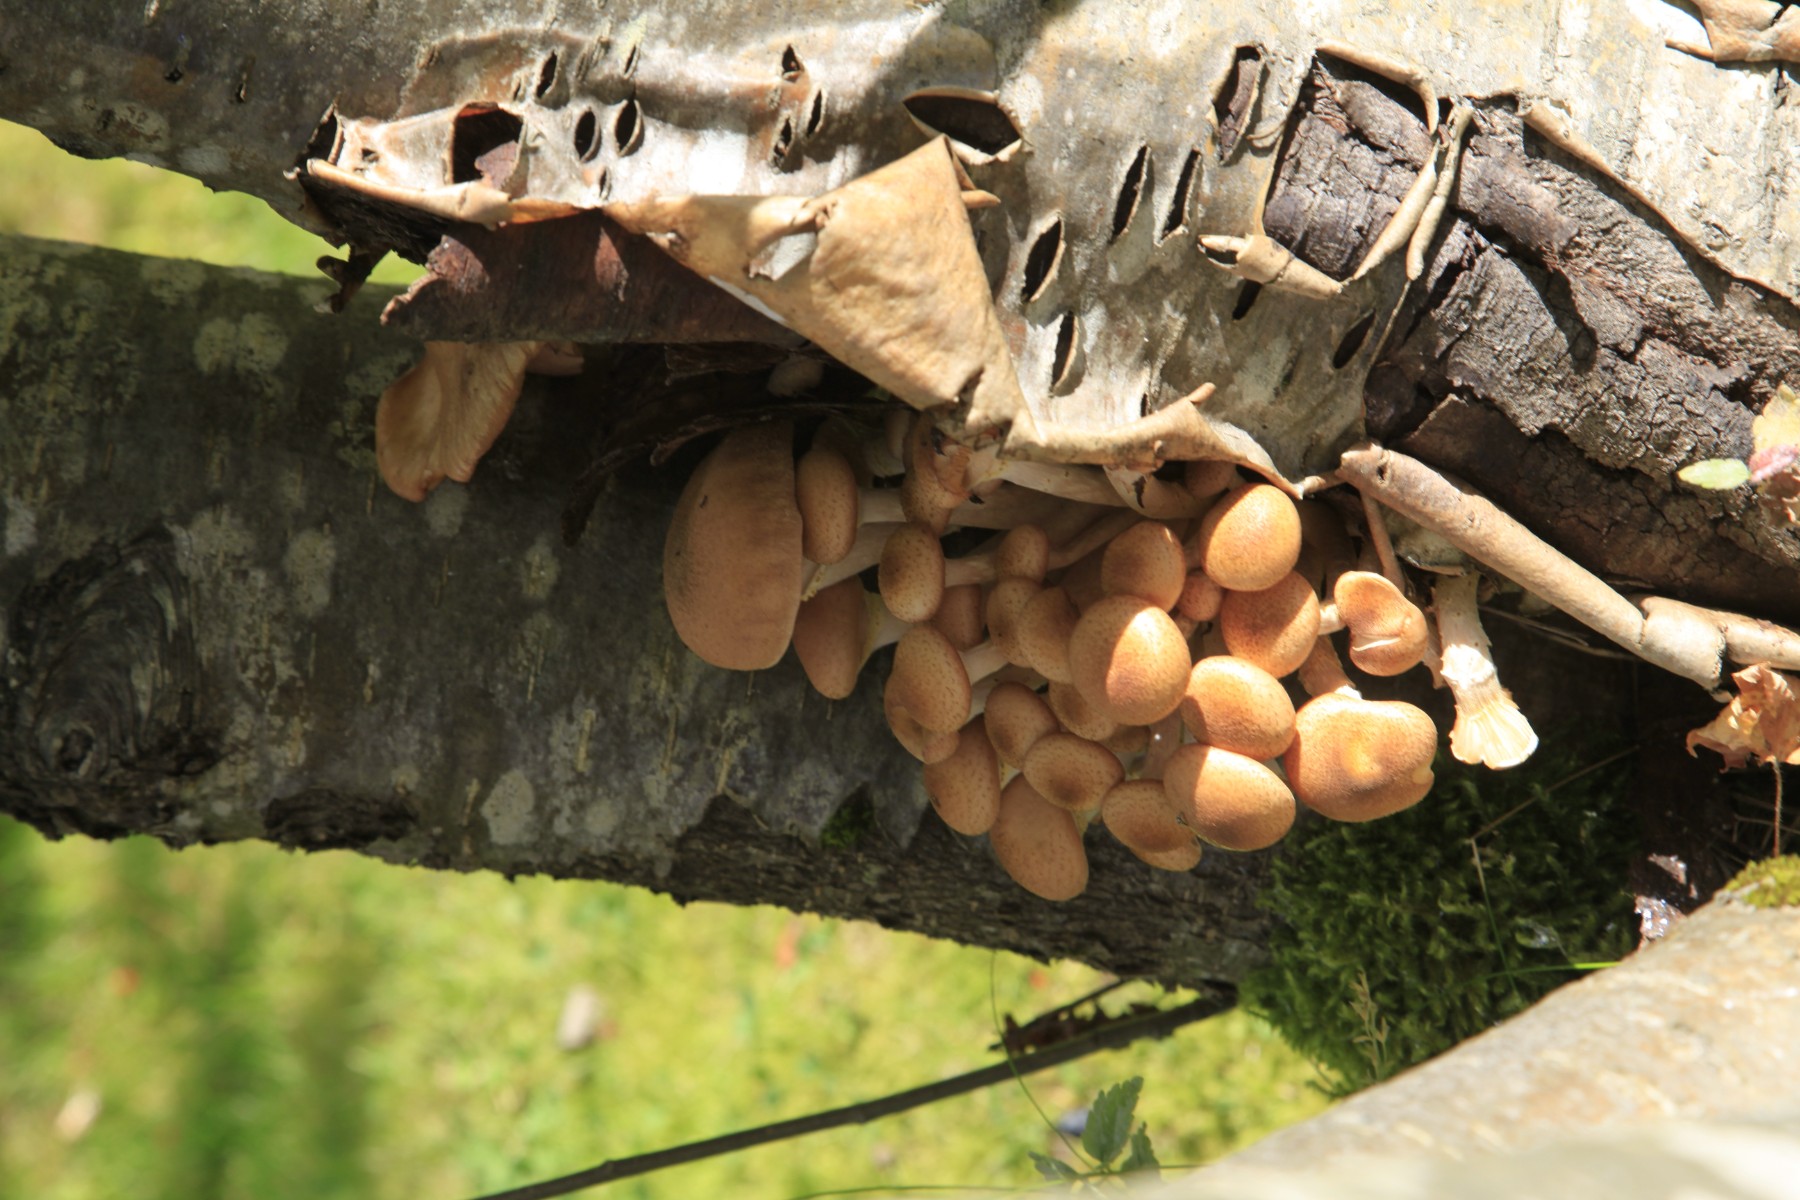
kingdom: Fungi
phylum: Basidiomycota
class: Agaricomycetes
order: Agaricales
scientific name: Agaricales
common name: champignonordenen
